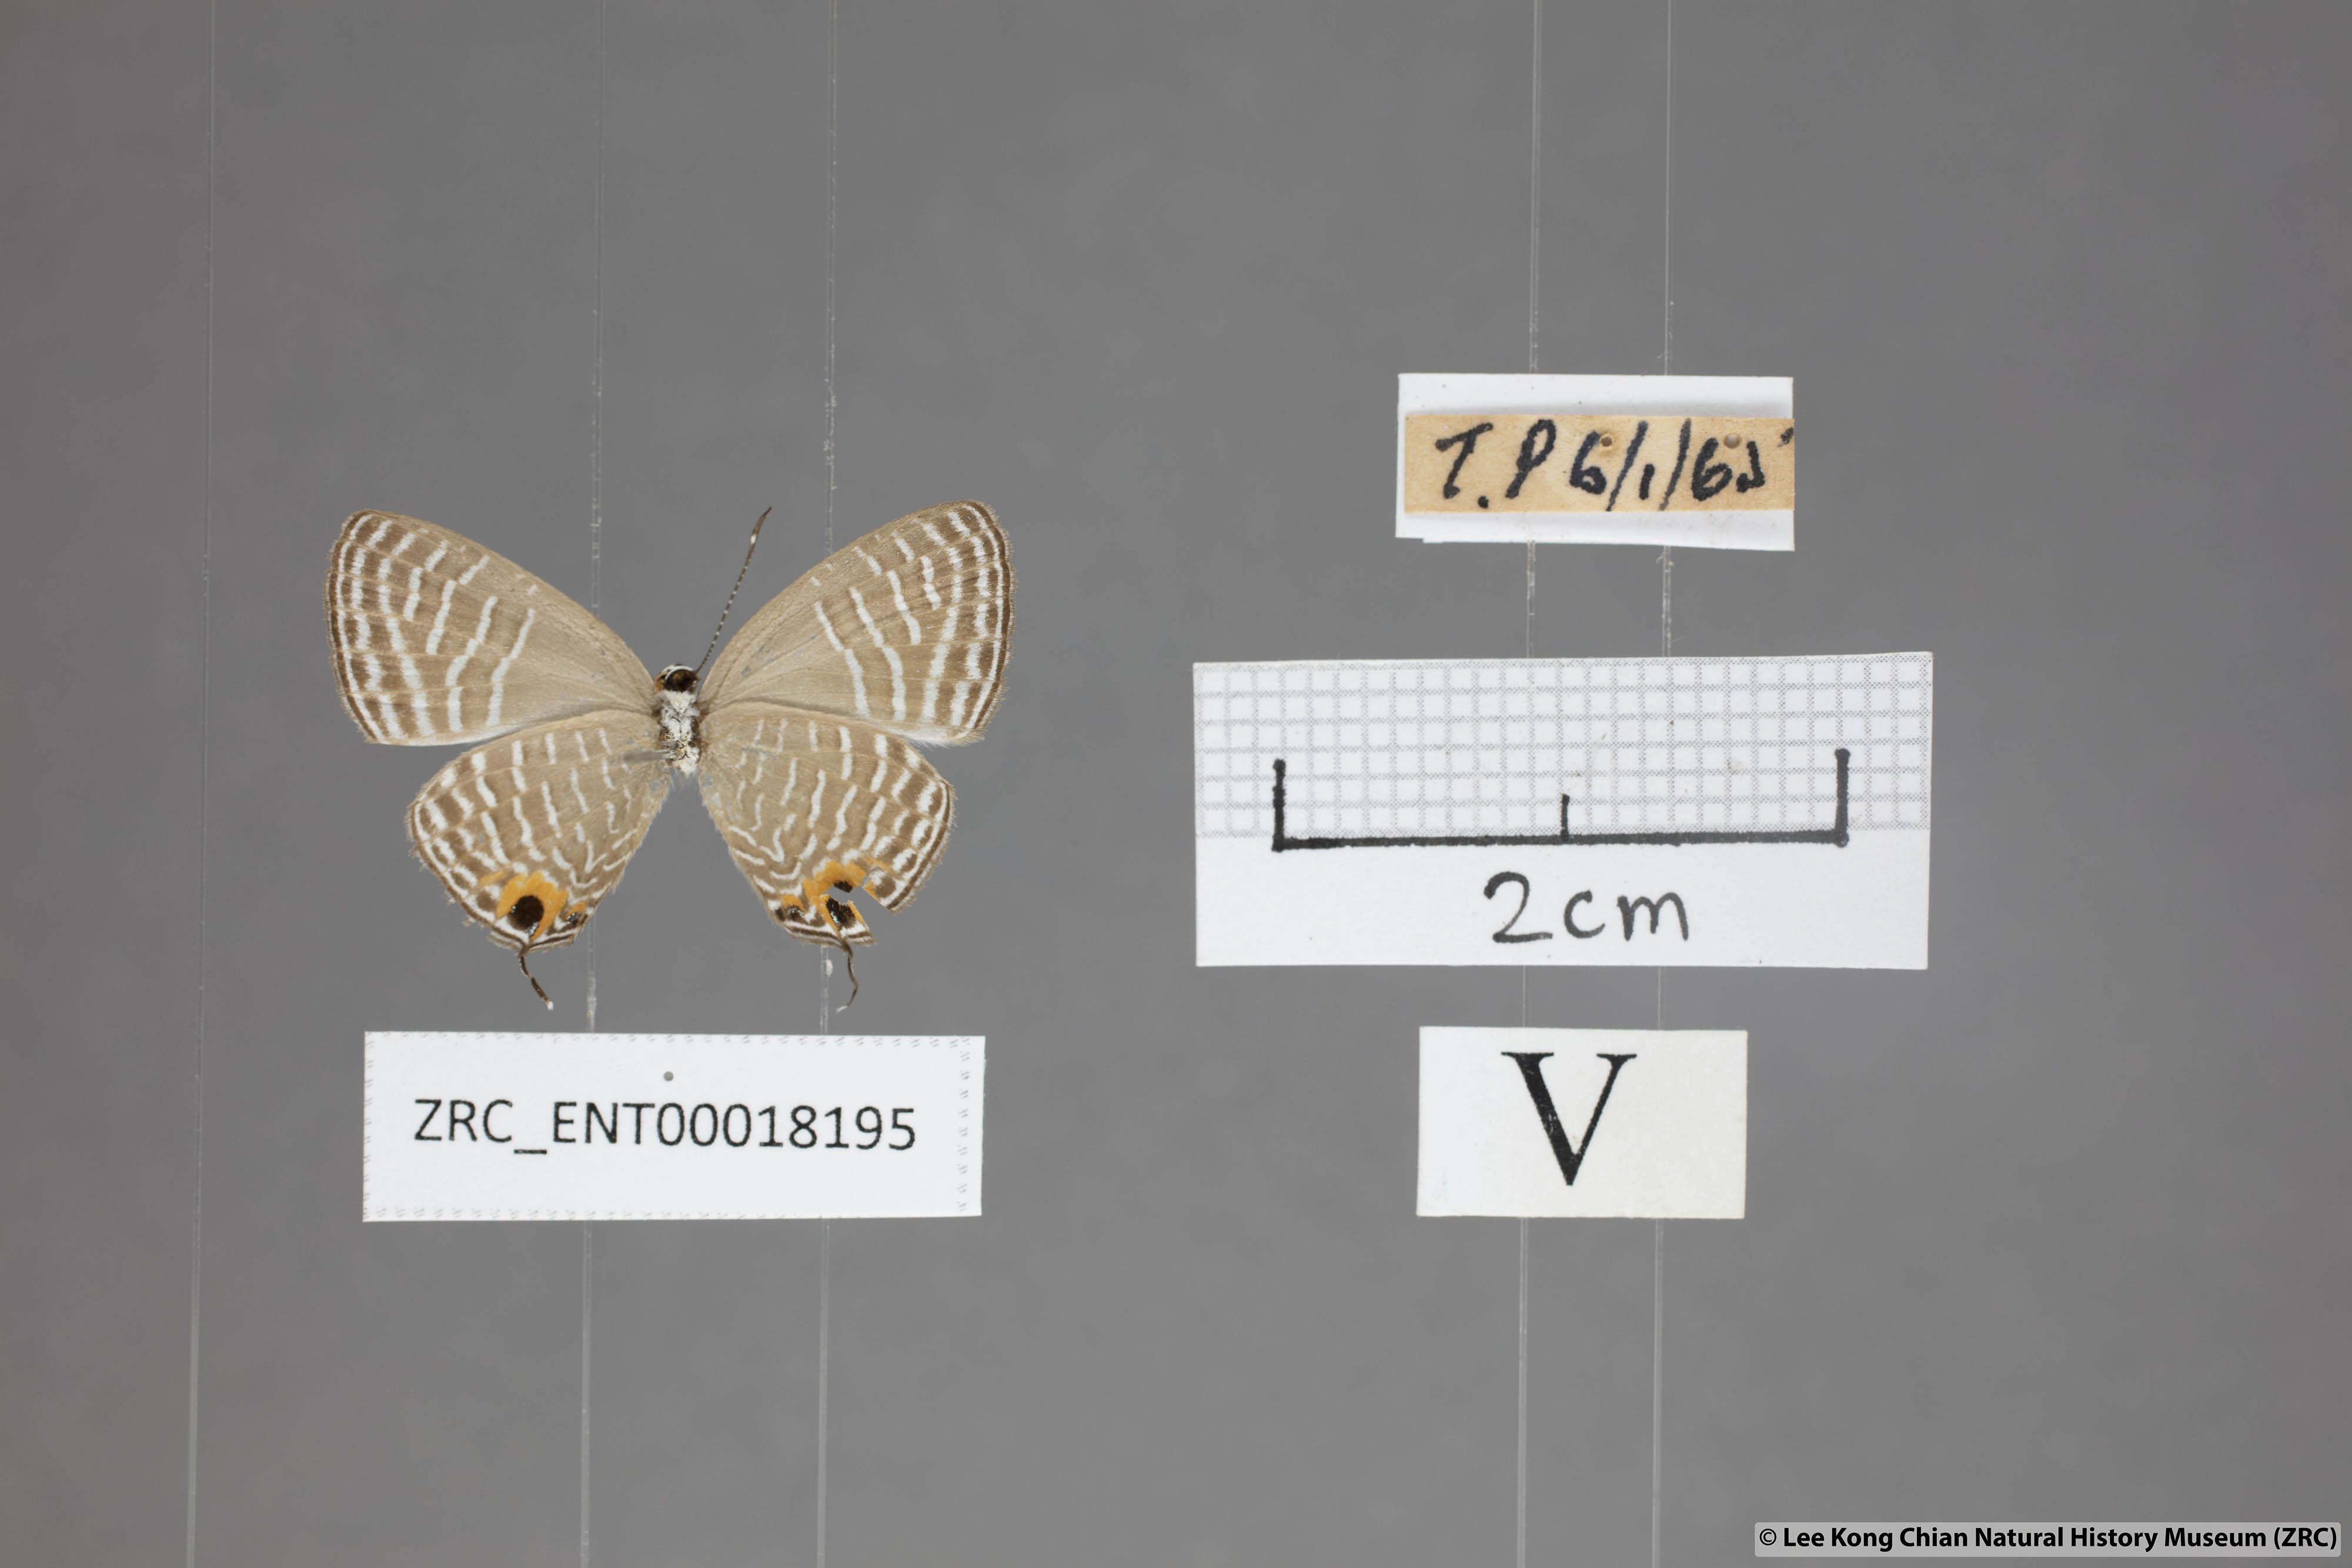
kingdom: Animalia
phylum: Arthropoda
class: Insecta
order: Lepidoptera
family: Lycaenidae
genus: Jamides
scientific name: Jamides talinga
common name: Lesser cerulean
